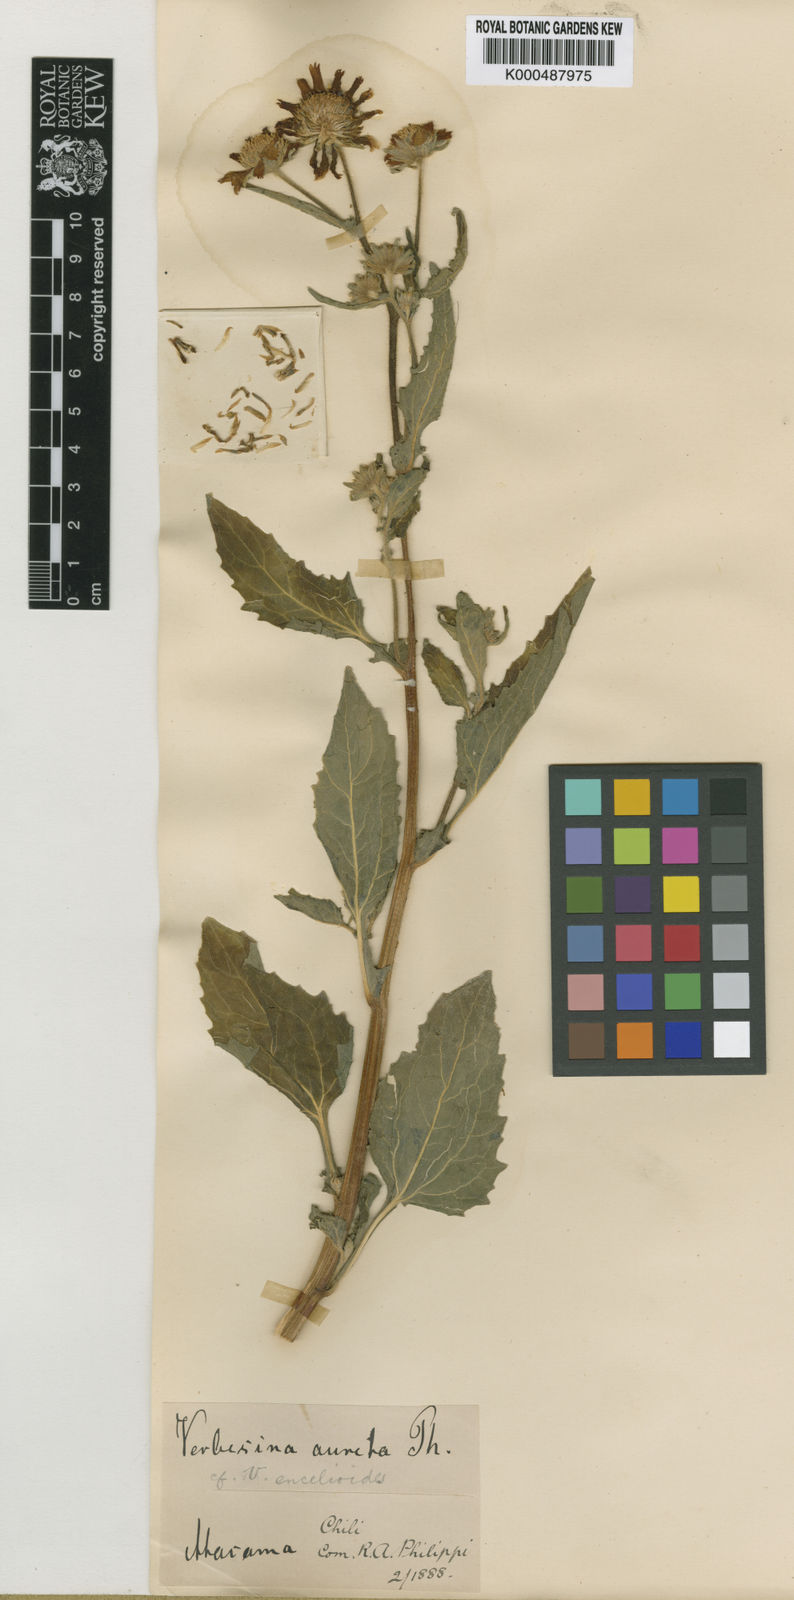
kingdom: Plantae
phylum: Tracheophyta
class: Magnoliopsida
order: Asterales
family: Asteraceae
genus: Verbesina
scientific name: Verbesina aurita
